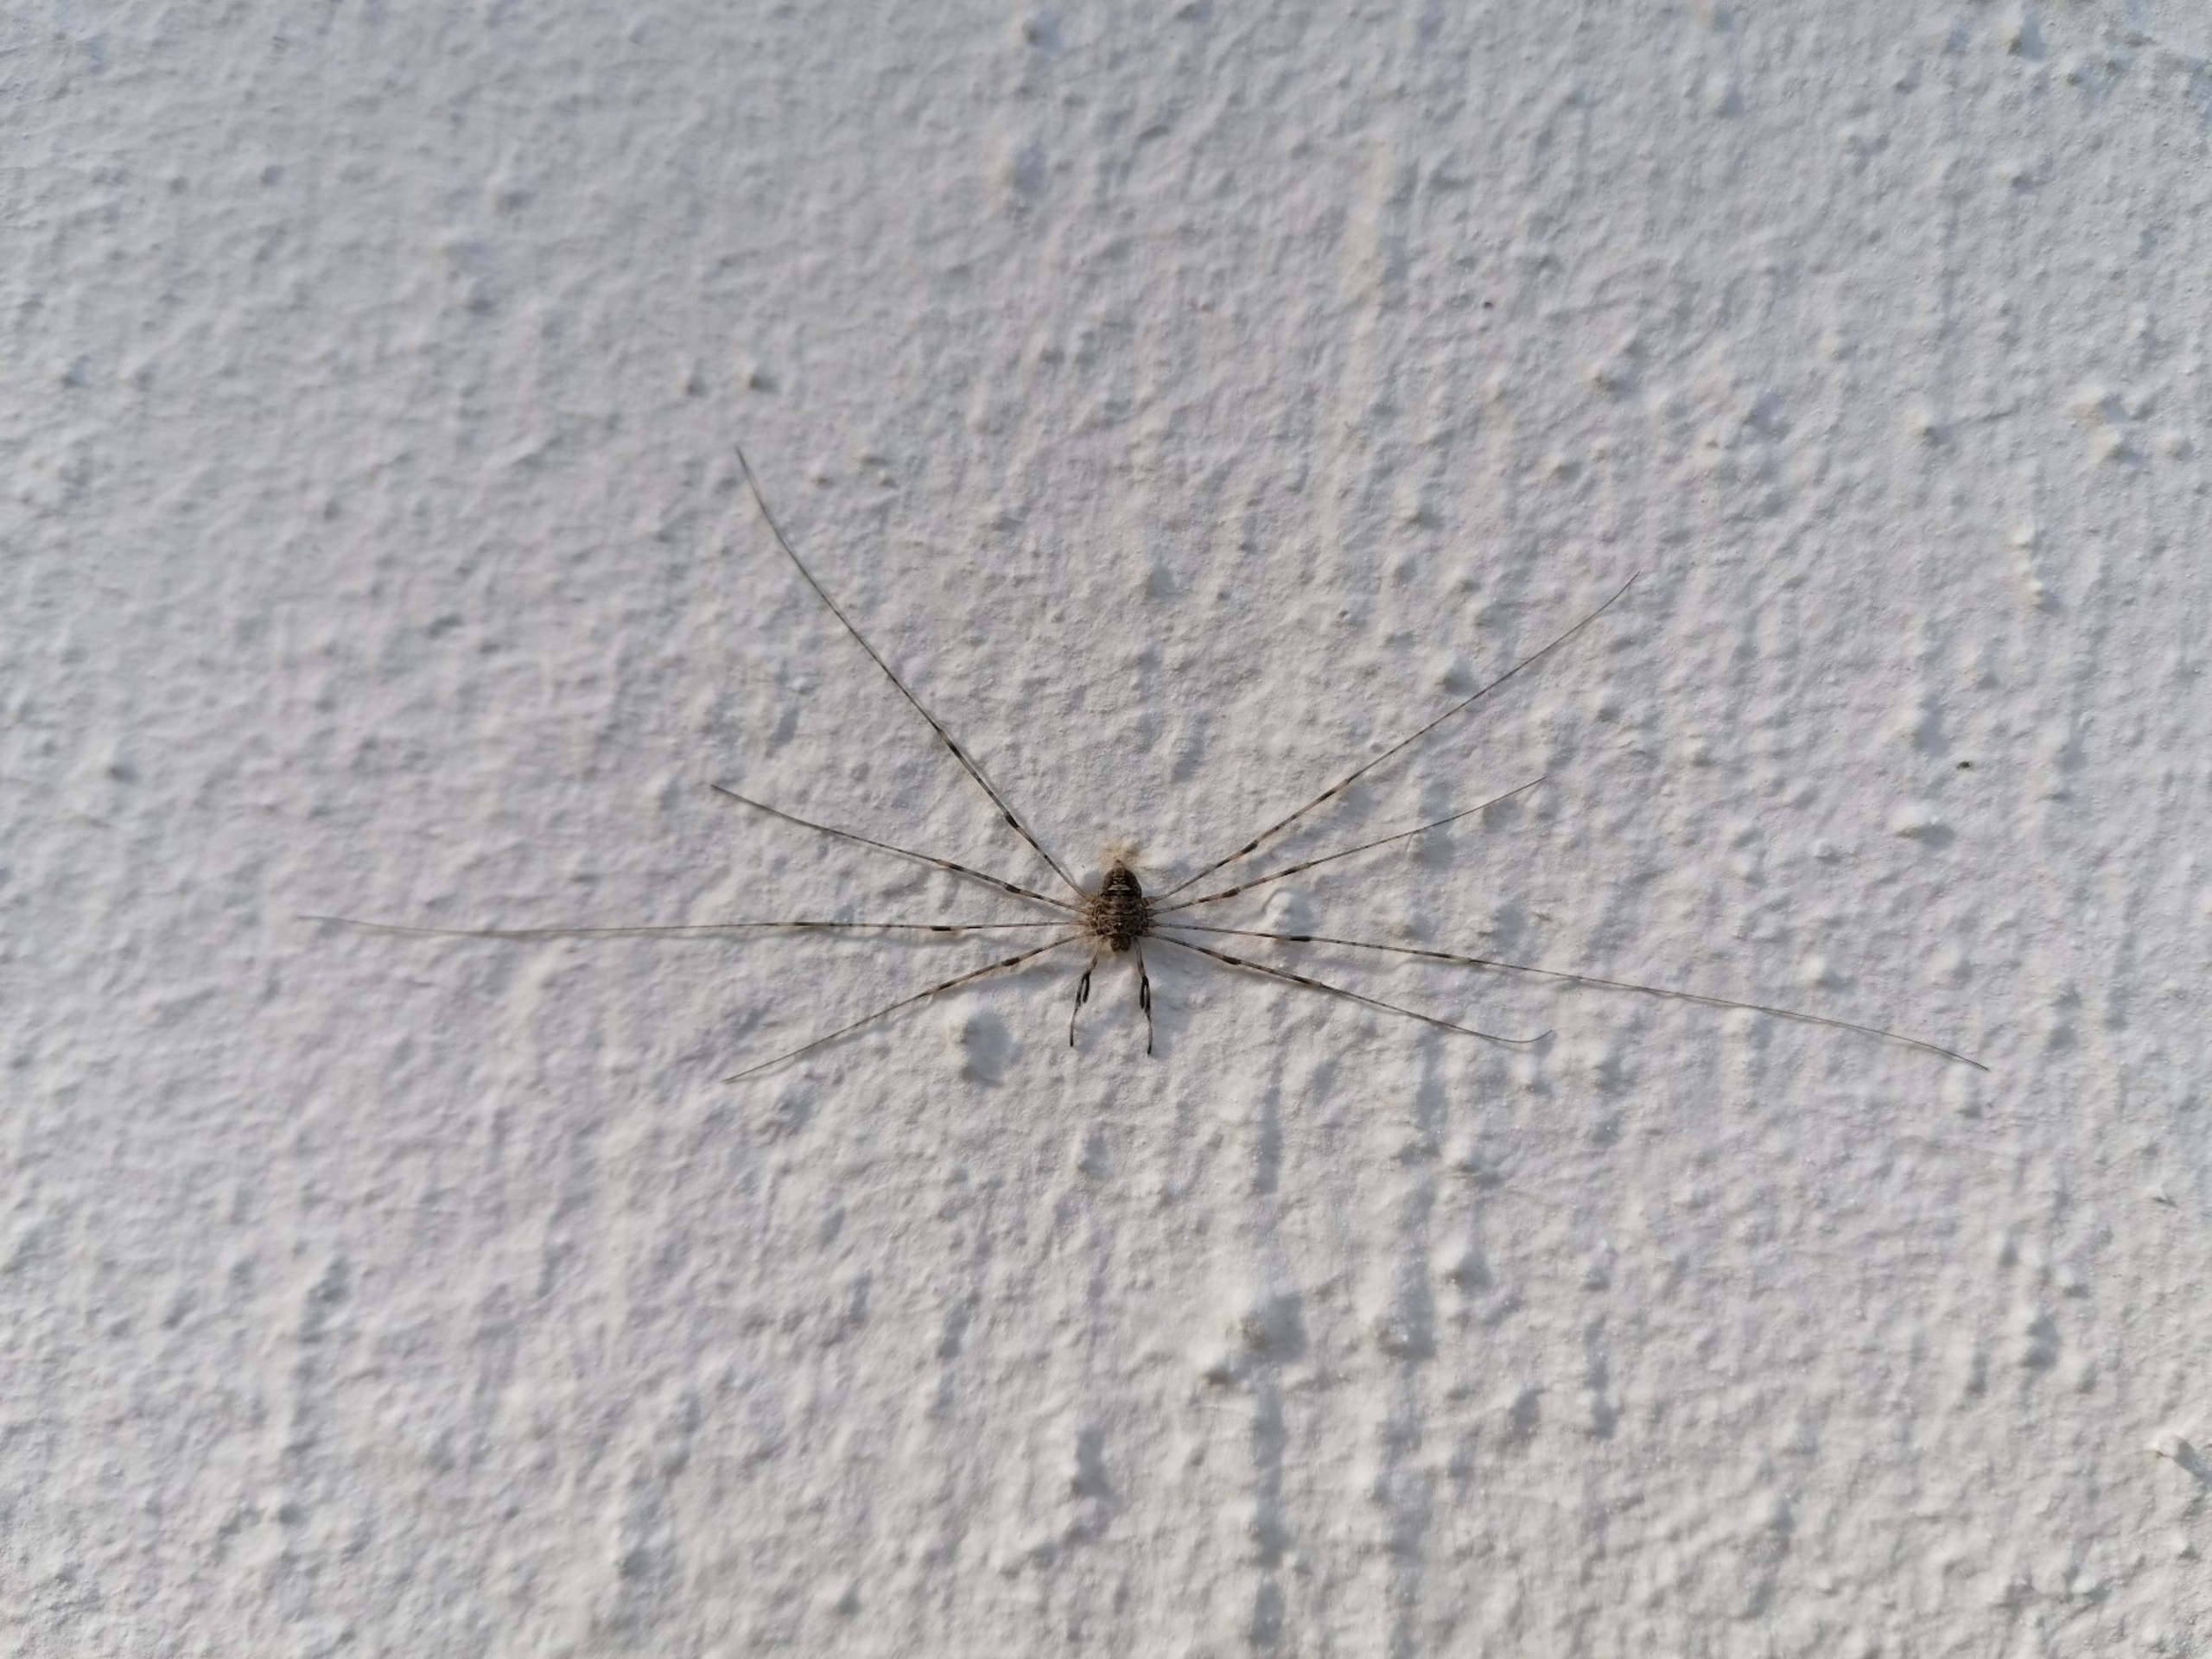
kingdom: Animalia
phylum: Arthropoda
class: Arachnida
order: Opiliones
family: Phalangiidae
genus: Dicranopalpus
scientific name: Dicranopalpus ramosus
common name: Gaffelmejer
